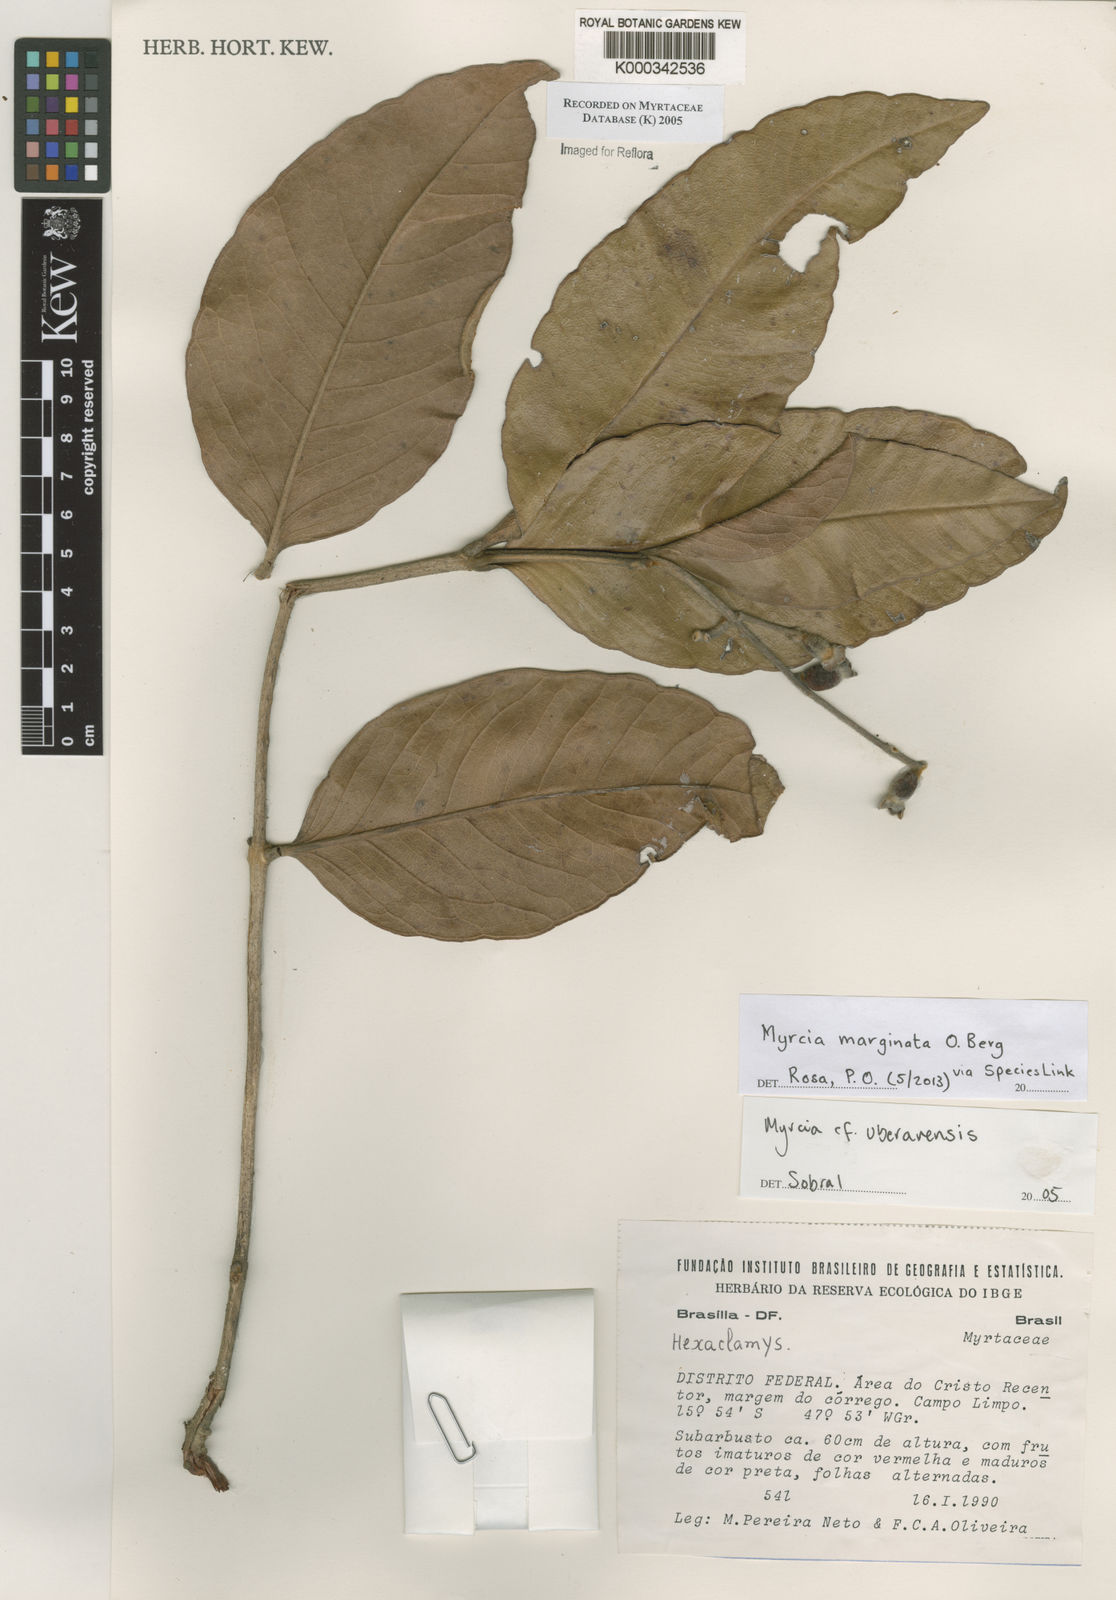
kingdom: Plantae
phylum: Tracheophyta
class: Magnoliopsida
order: Myrtales
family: Myrtaceae
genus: Myrcia
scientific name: Myrcia uberavensis
